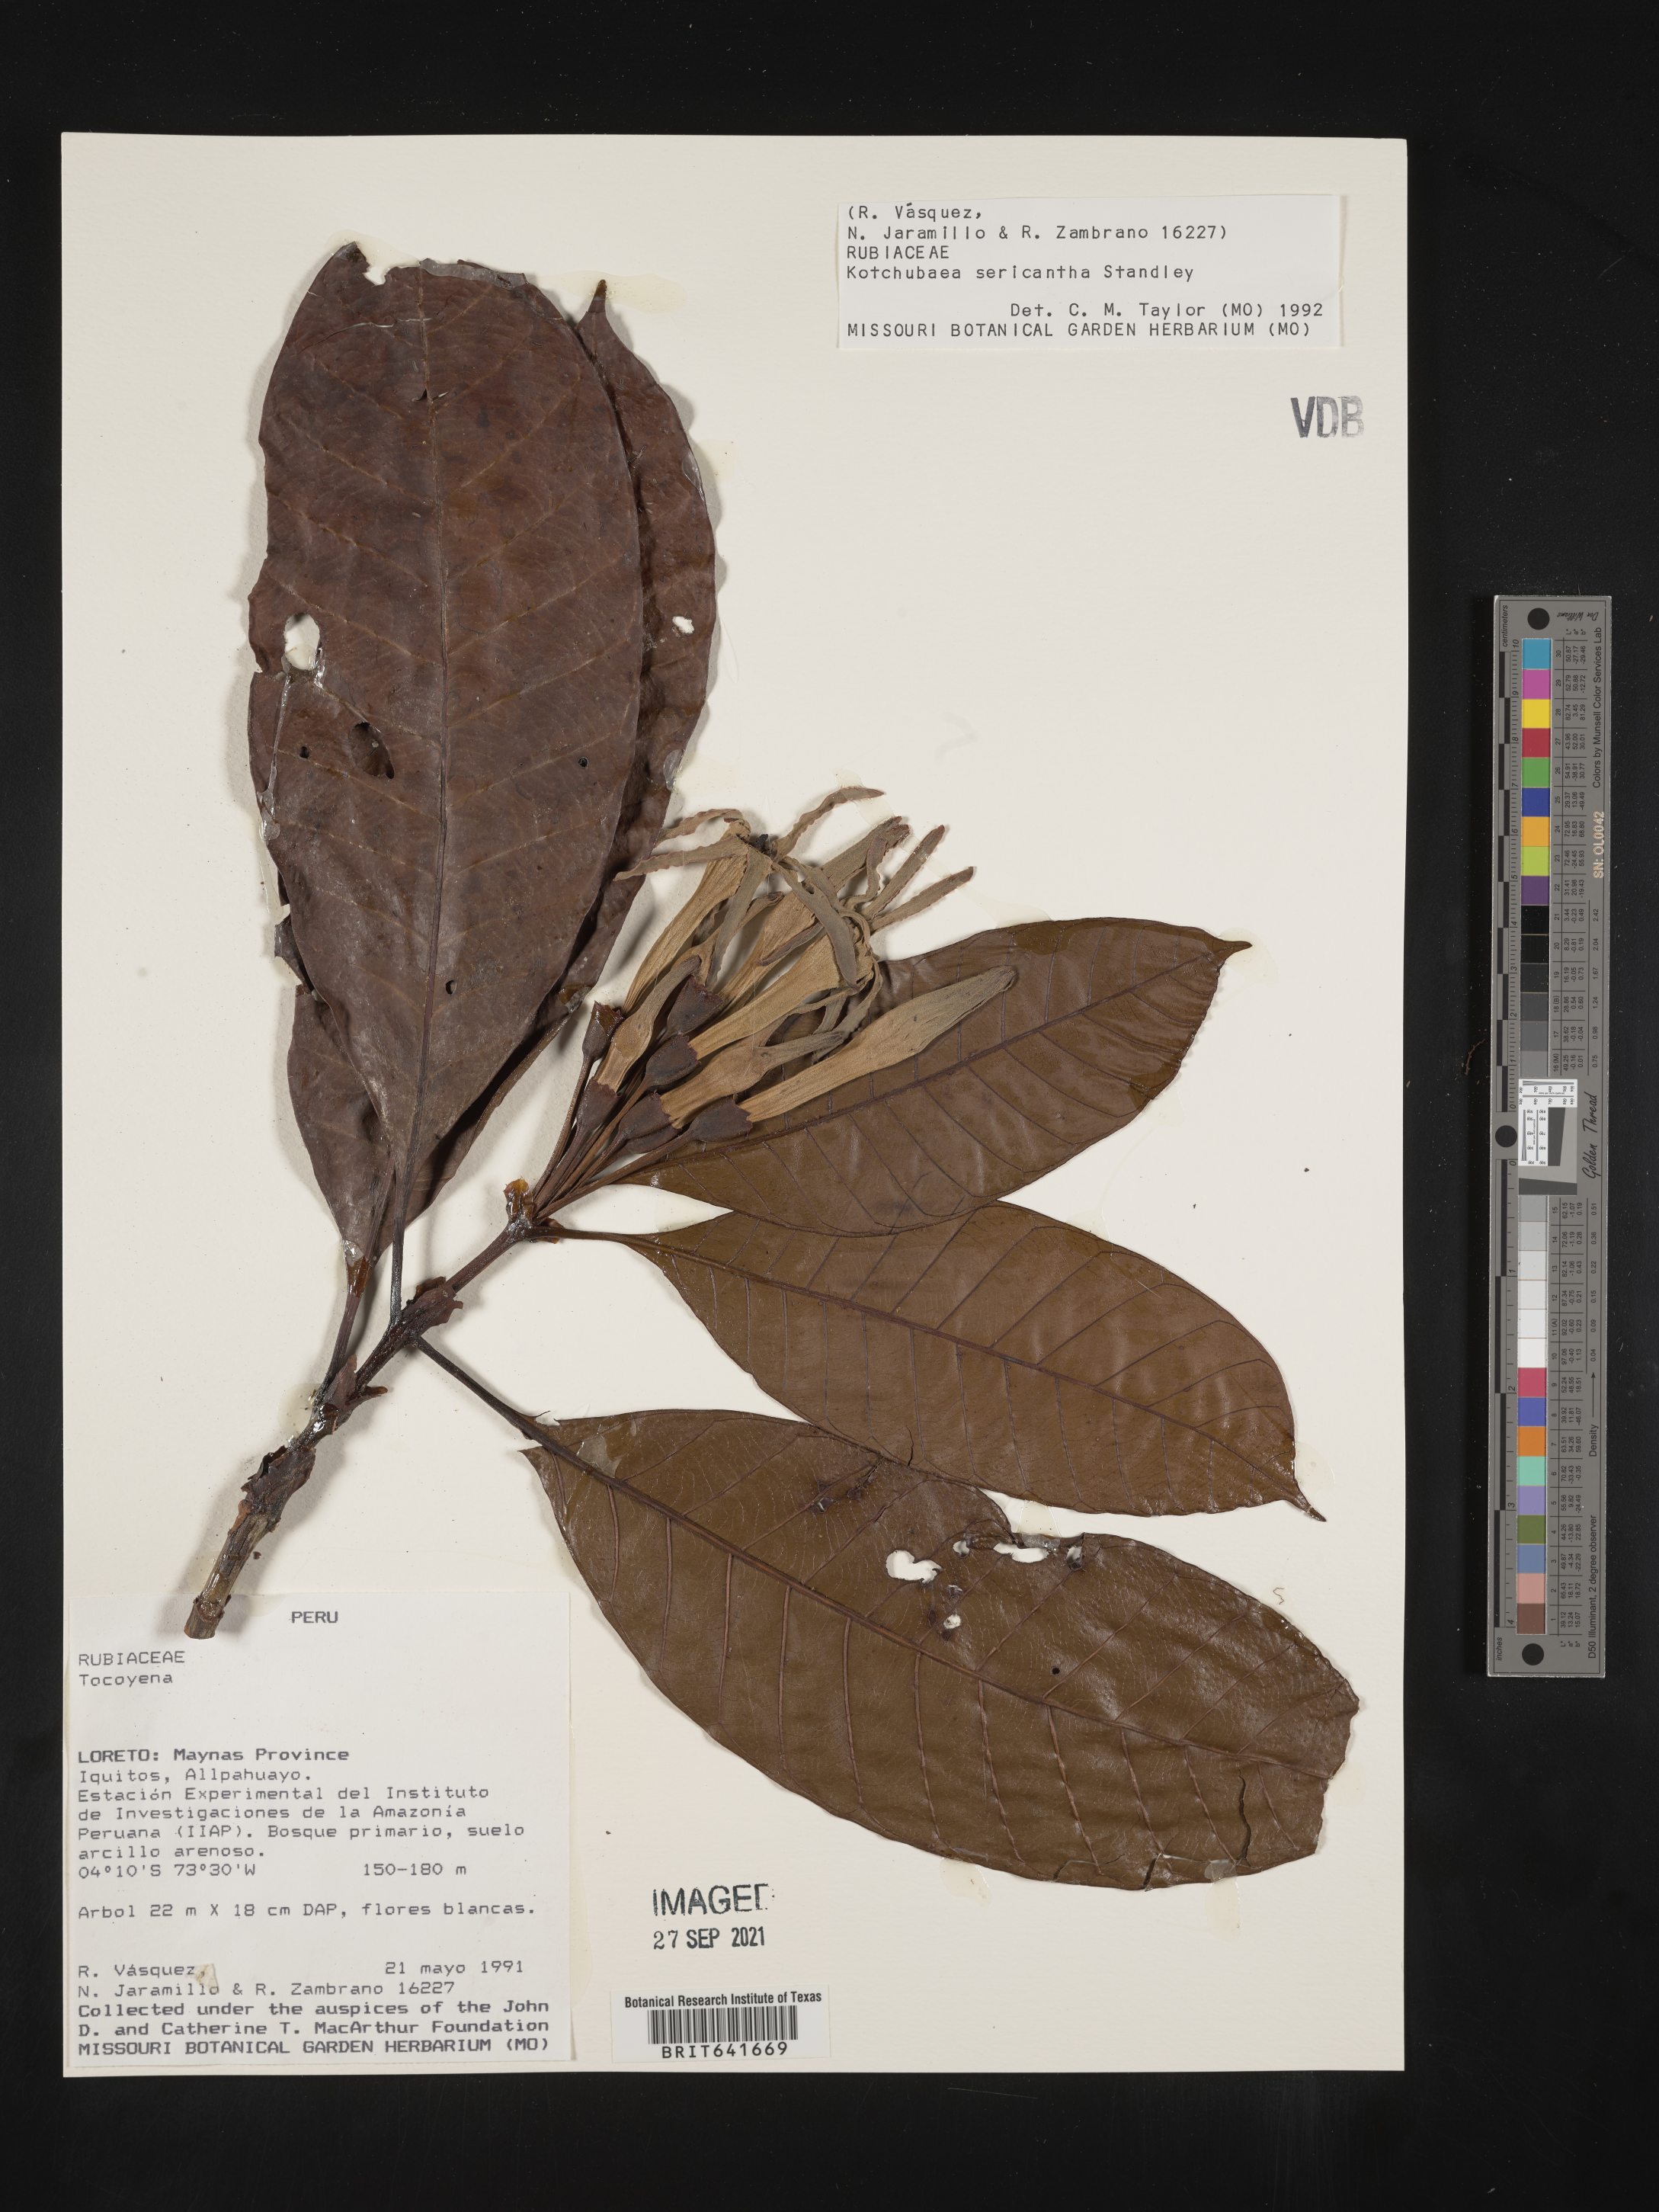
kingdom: Plantae
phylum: Tracheophyta
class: Magnoliopsida
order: Gentianales
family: Rubiaceae
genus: Tocoyena
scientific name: Tocoyena
